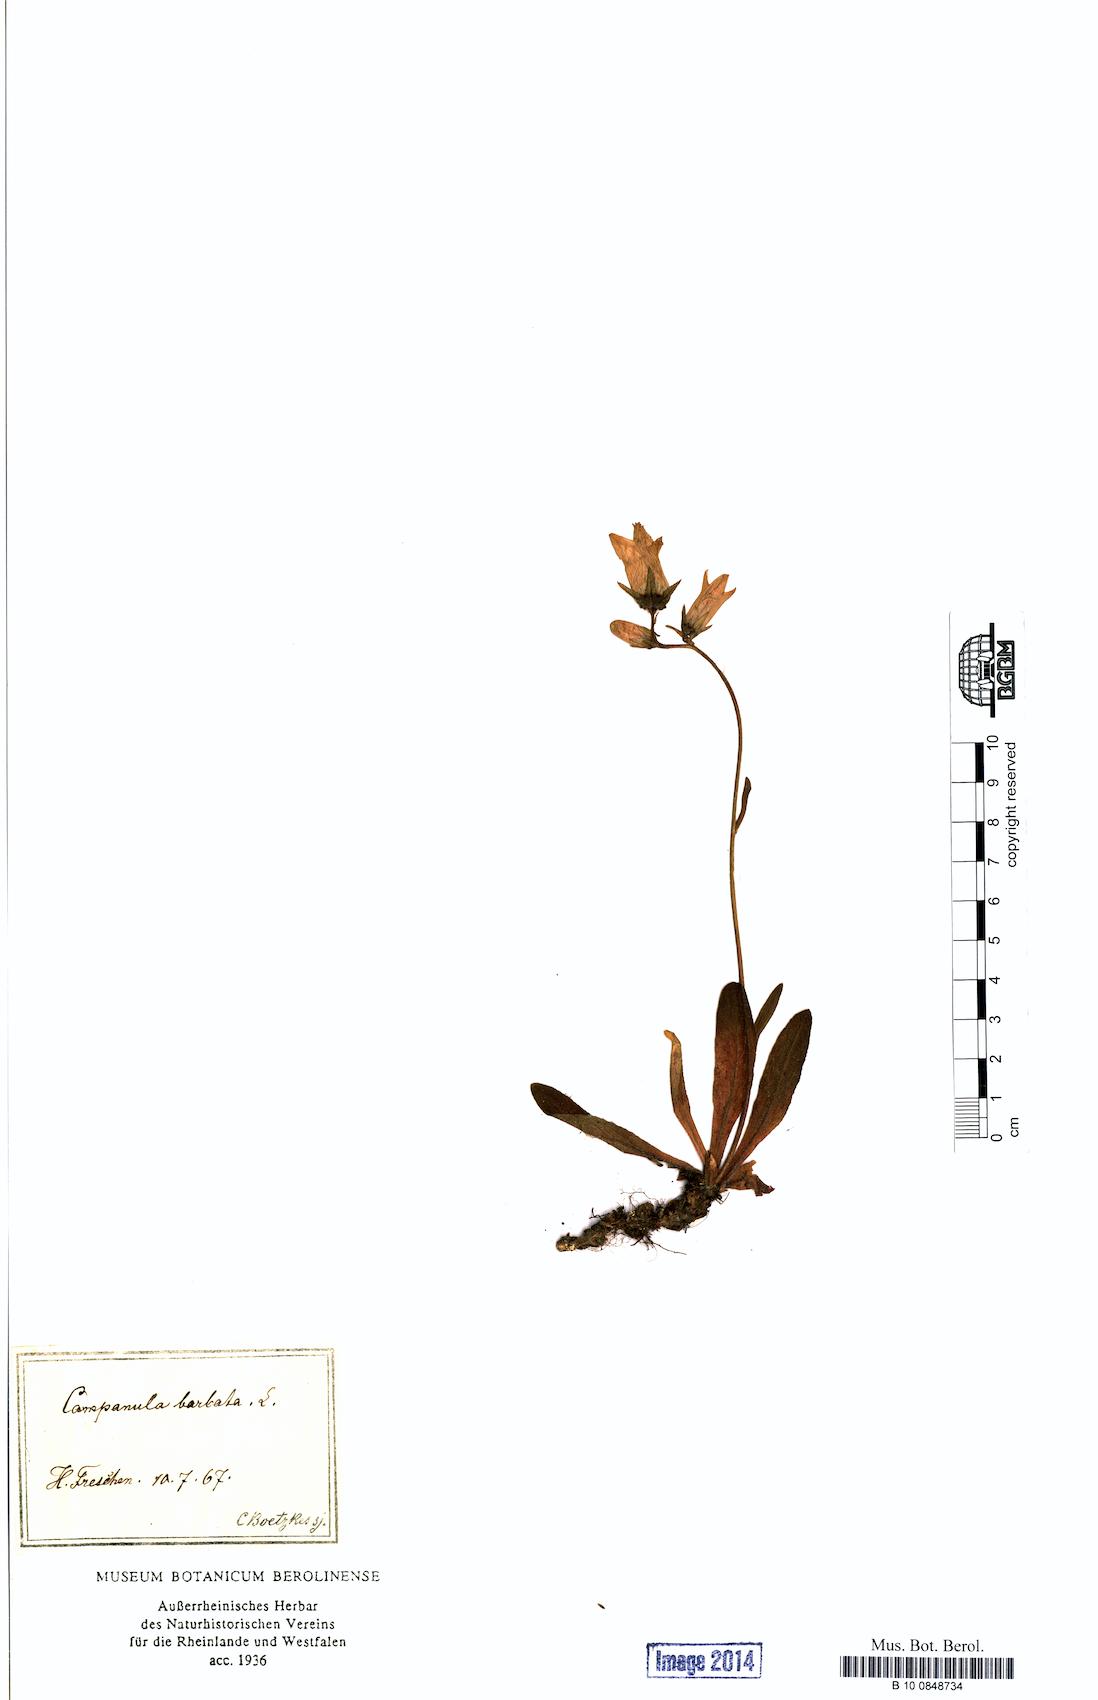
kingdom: Plantae
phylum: Tracheophyta
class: Magnoliopsida
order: Asterales
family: Campanulaceae
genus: Campanula
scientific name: Campanula barbata
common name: Bearded bellflower
